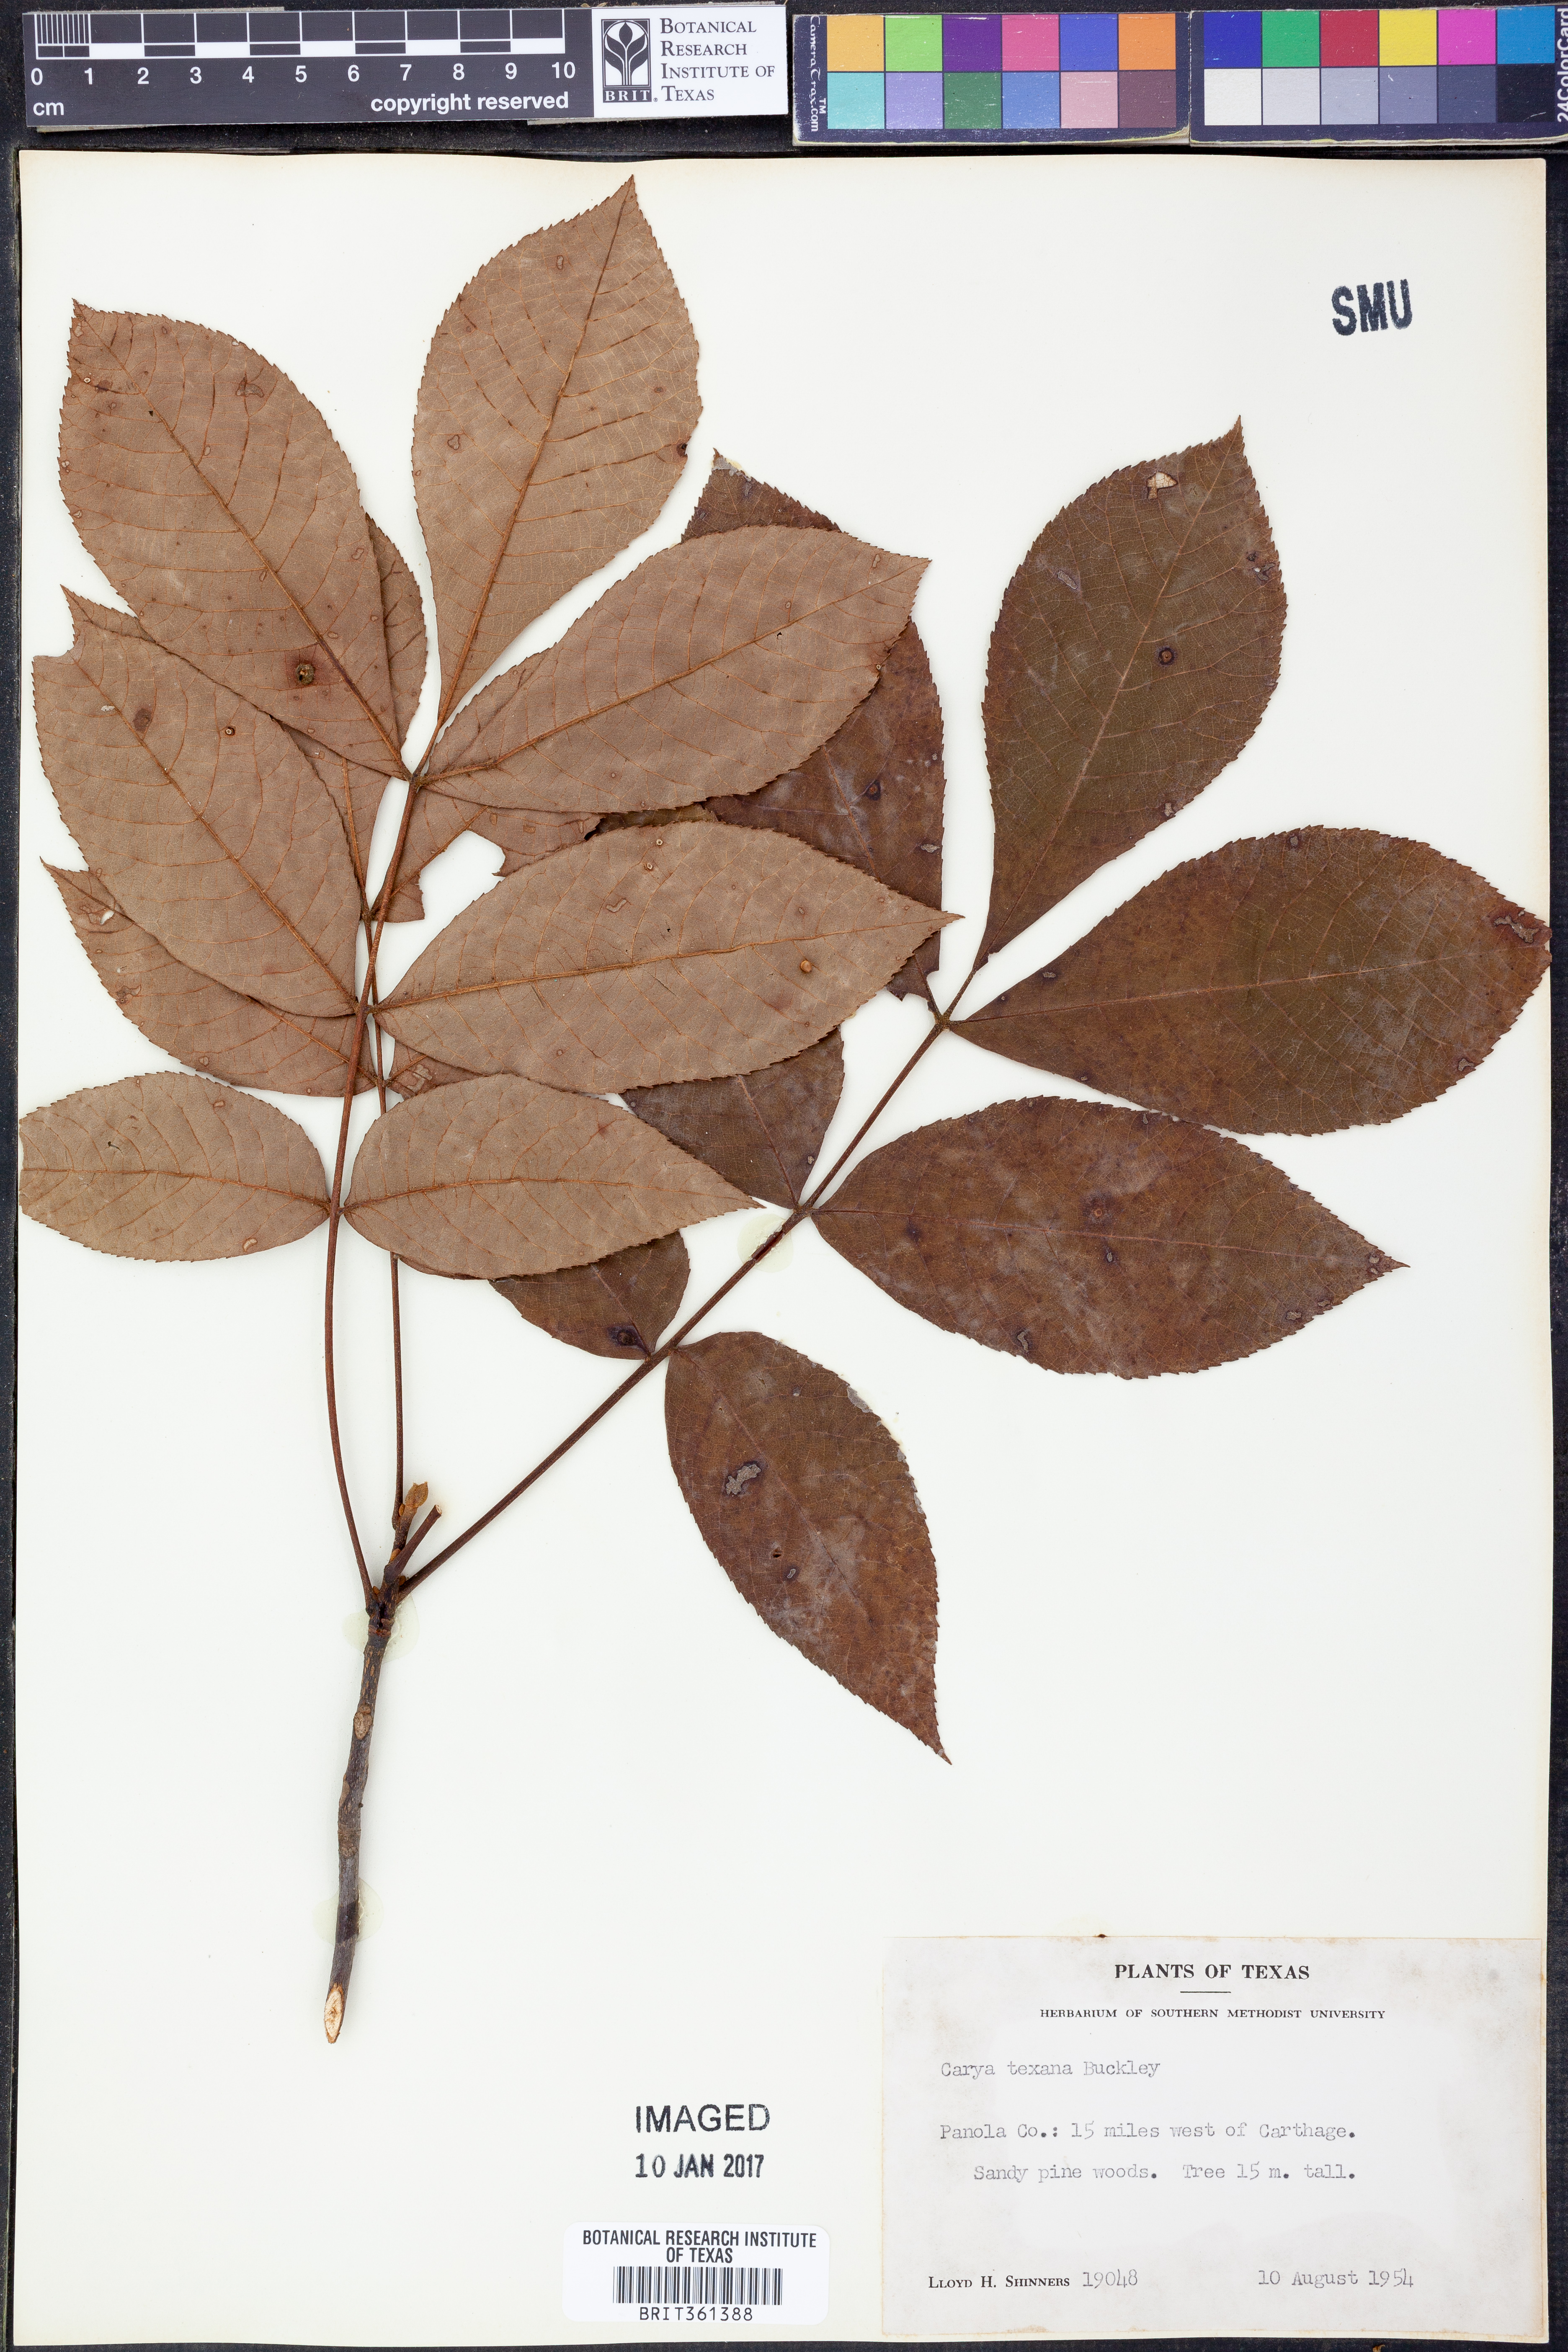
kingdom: Plantae
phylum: Tracheophyta
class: Magnoliopsida
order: Fagales
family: Juglandaceae
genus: Carya
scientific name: Carya texana
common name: Black hickory
